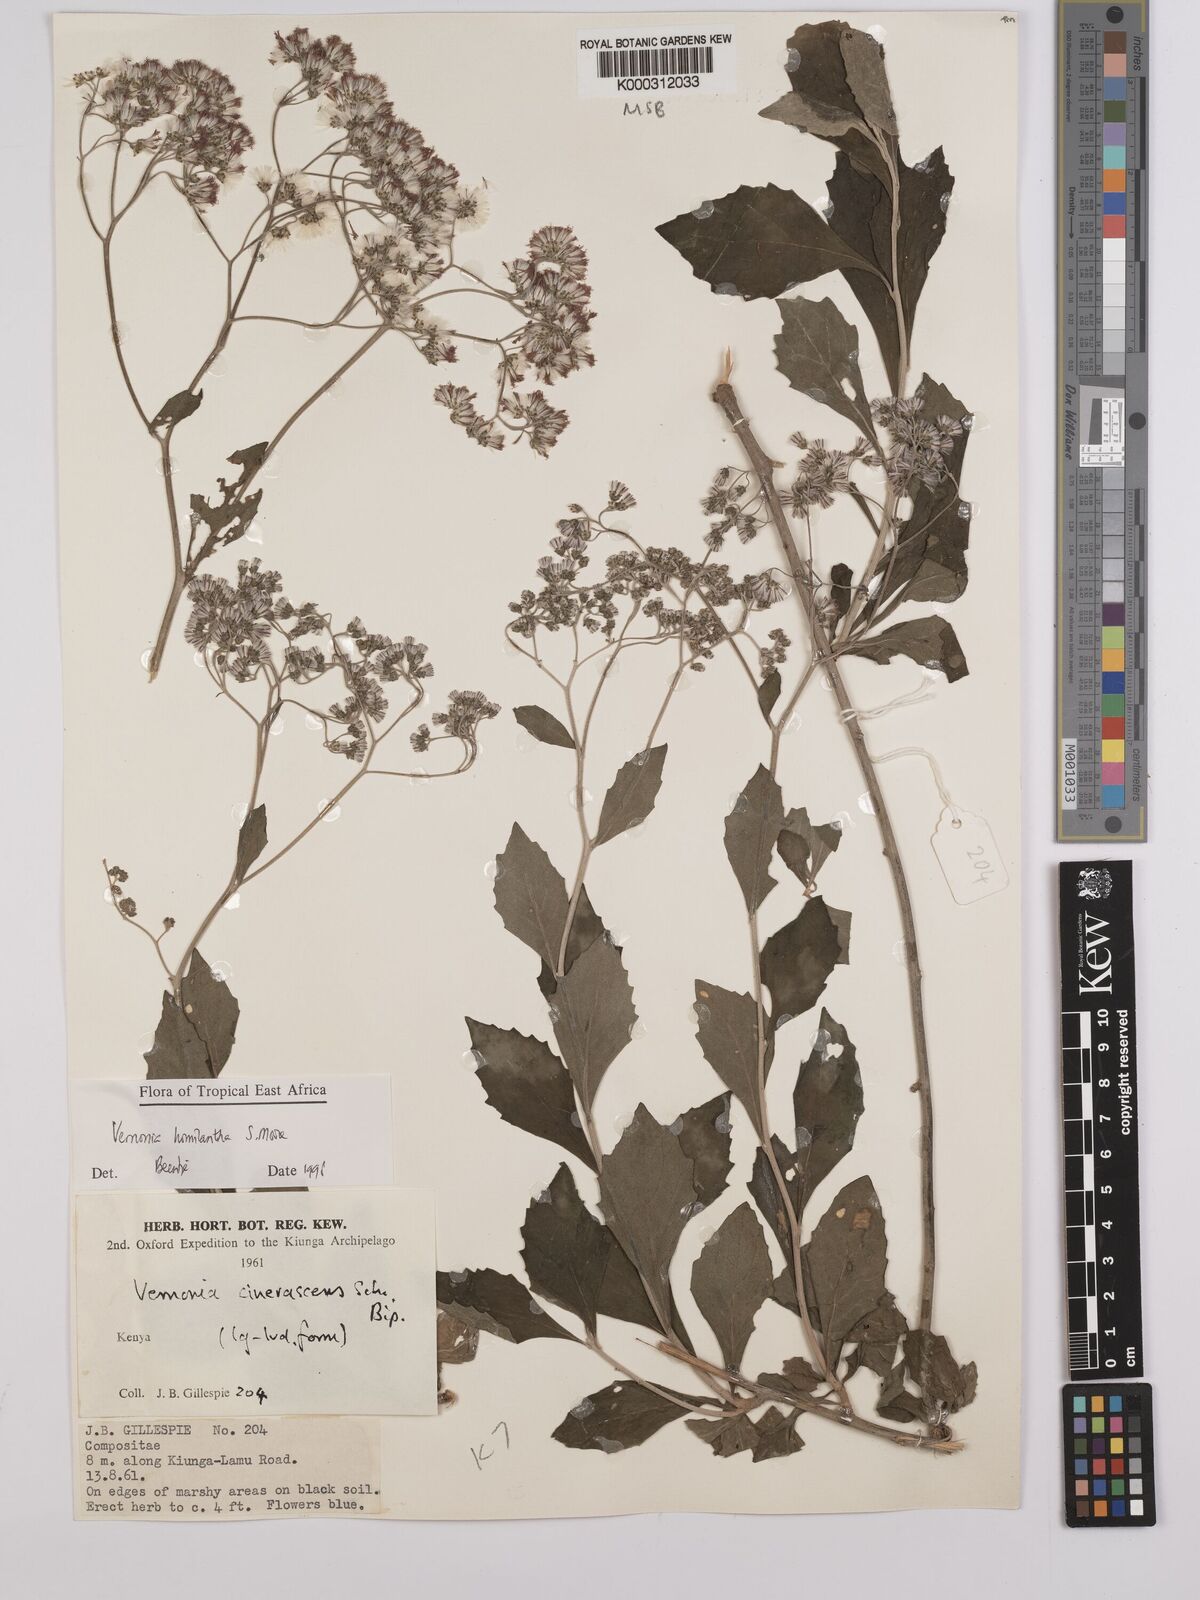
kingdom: Plantae
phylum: Tracheophyta
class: Magnoliopsida
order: Asterales
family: Asteraceae
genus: Orbivestus
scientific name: Orbivestus homilanthus
